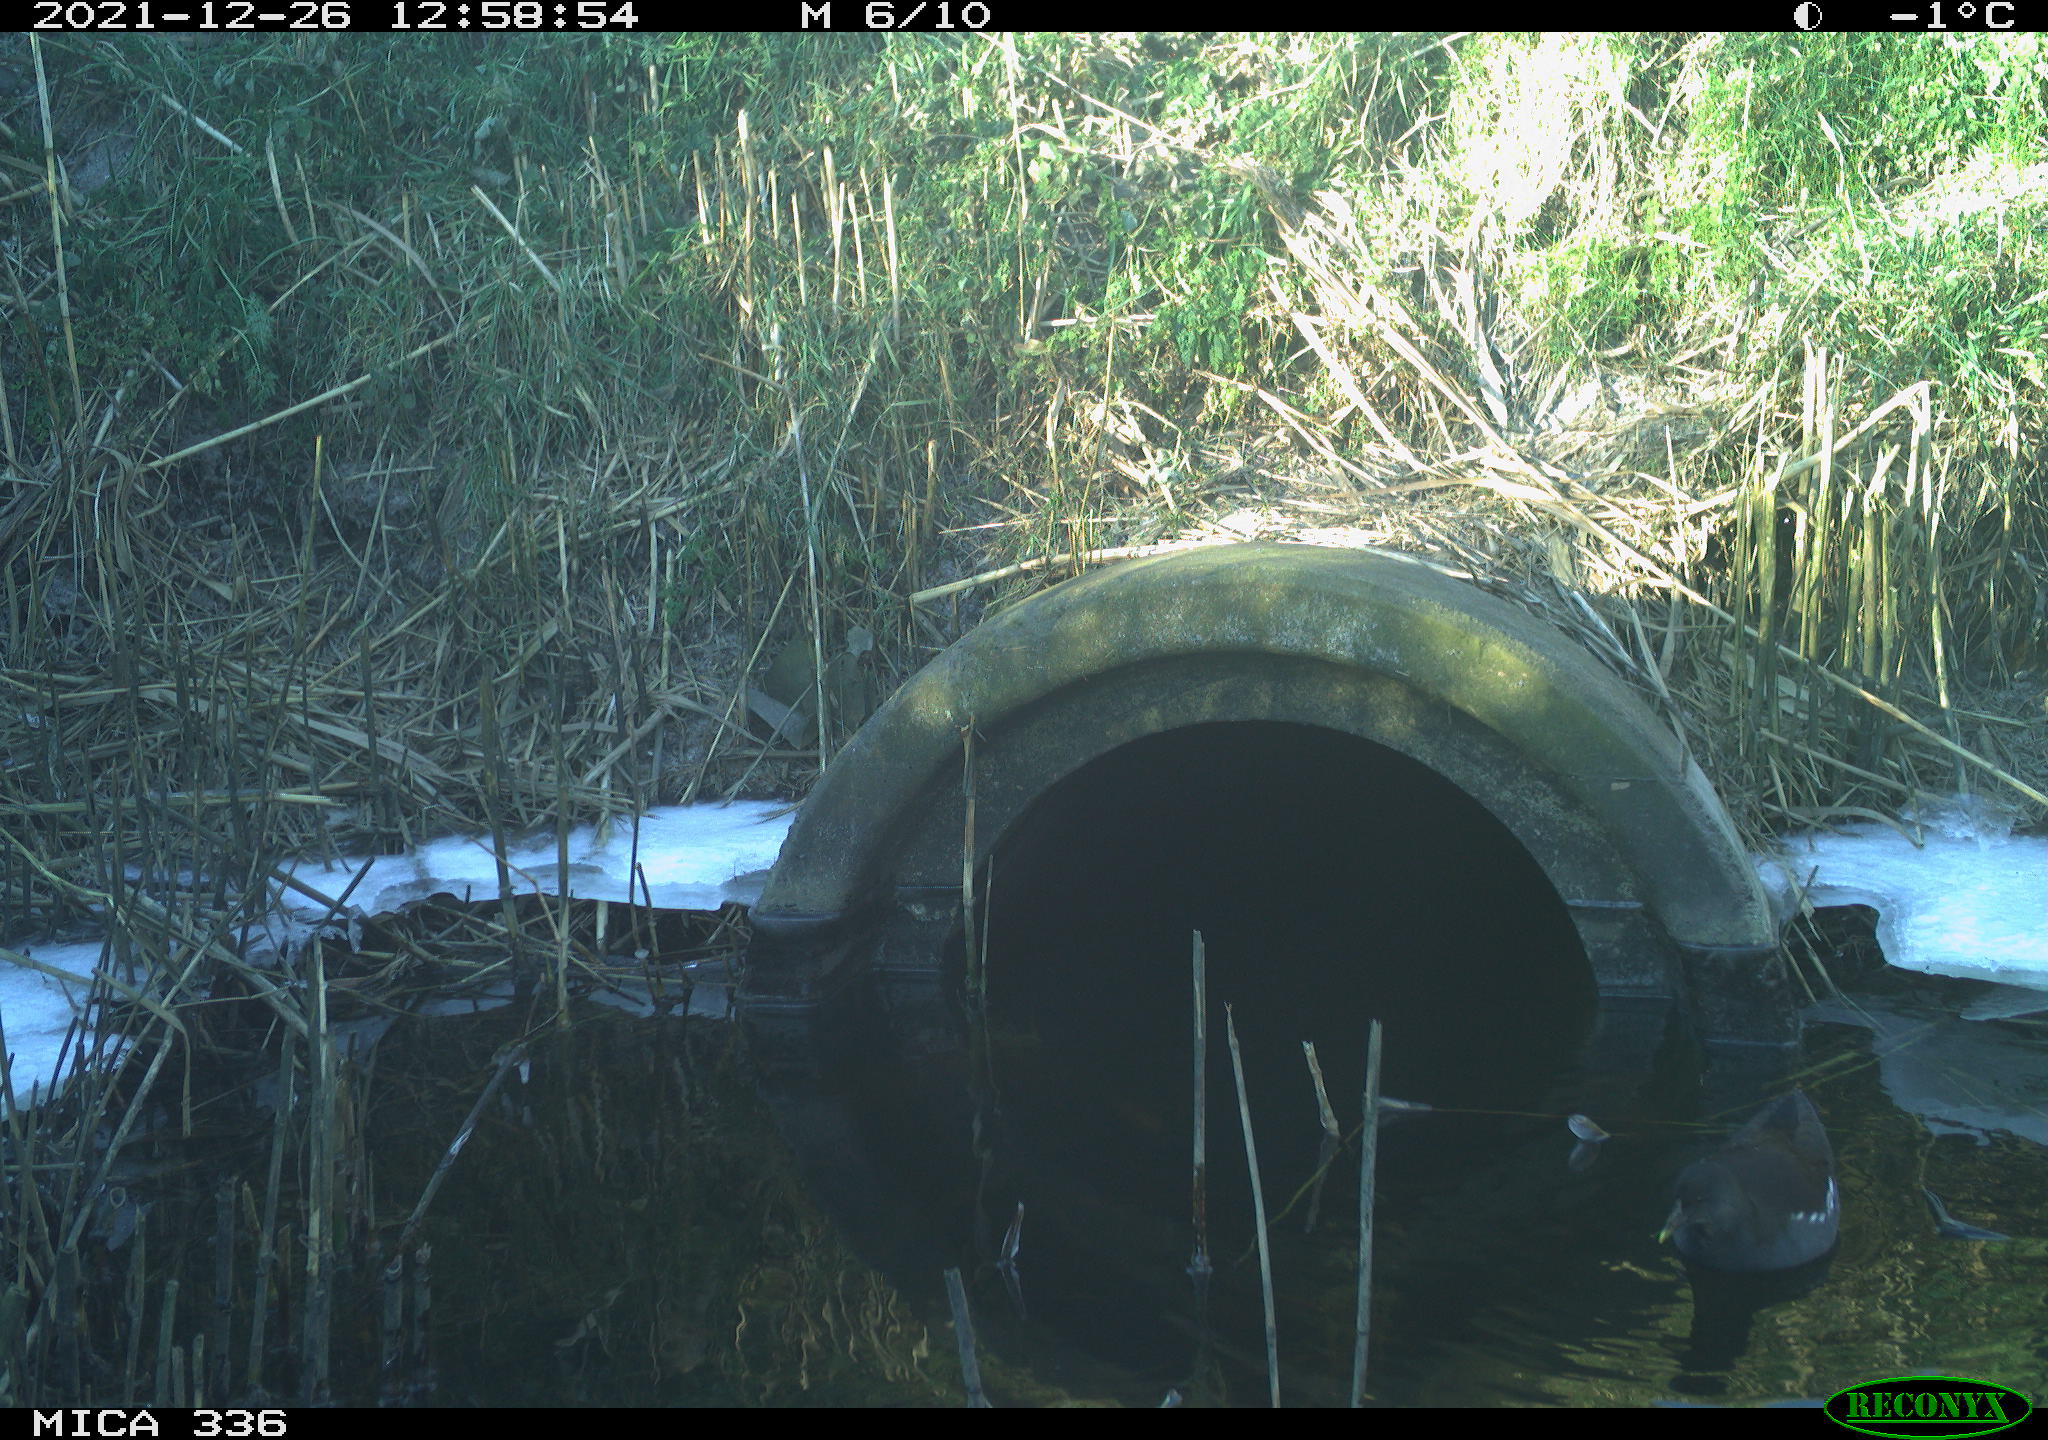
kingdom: Animalia
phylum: Chordata
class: Aves
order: Gruiformes
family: Rallidae
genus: Gallinula
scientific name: Gallinula chloropus
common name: Common moorhen
